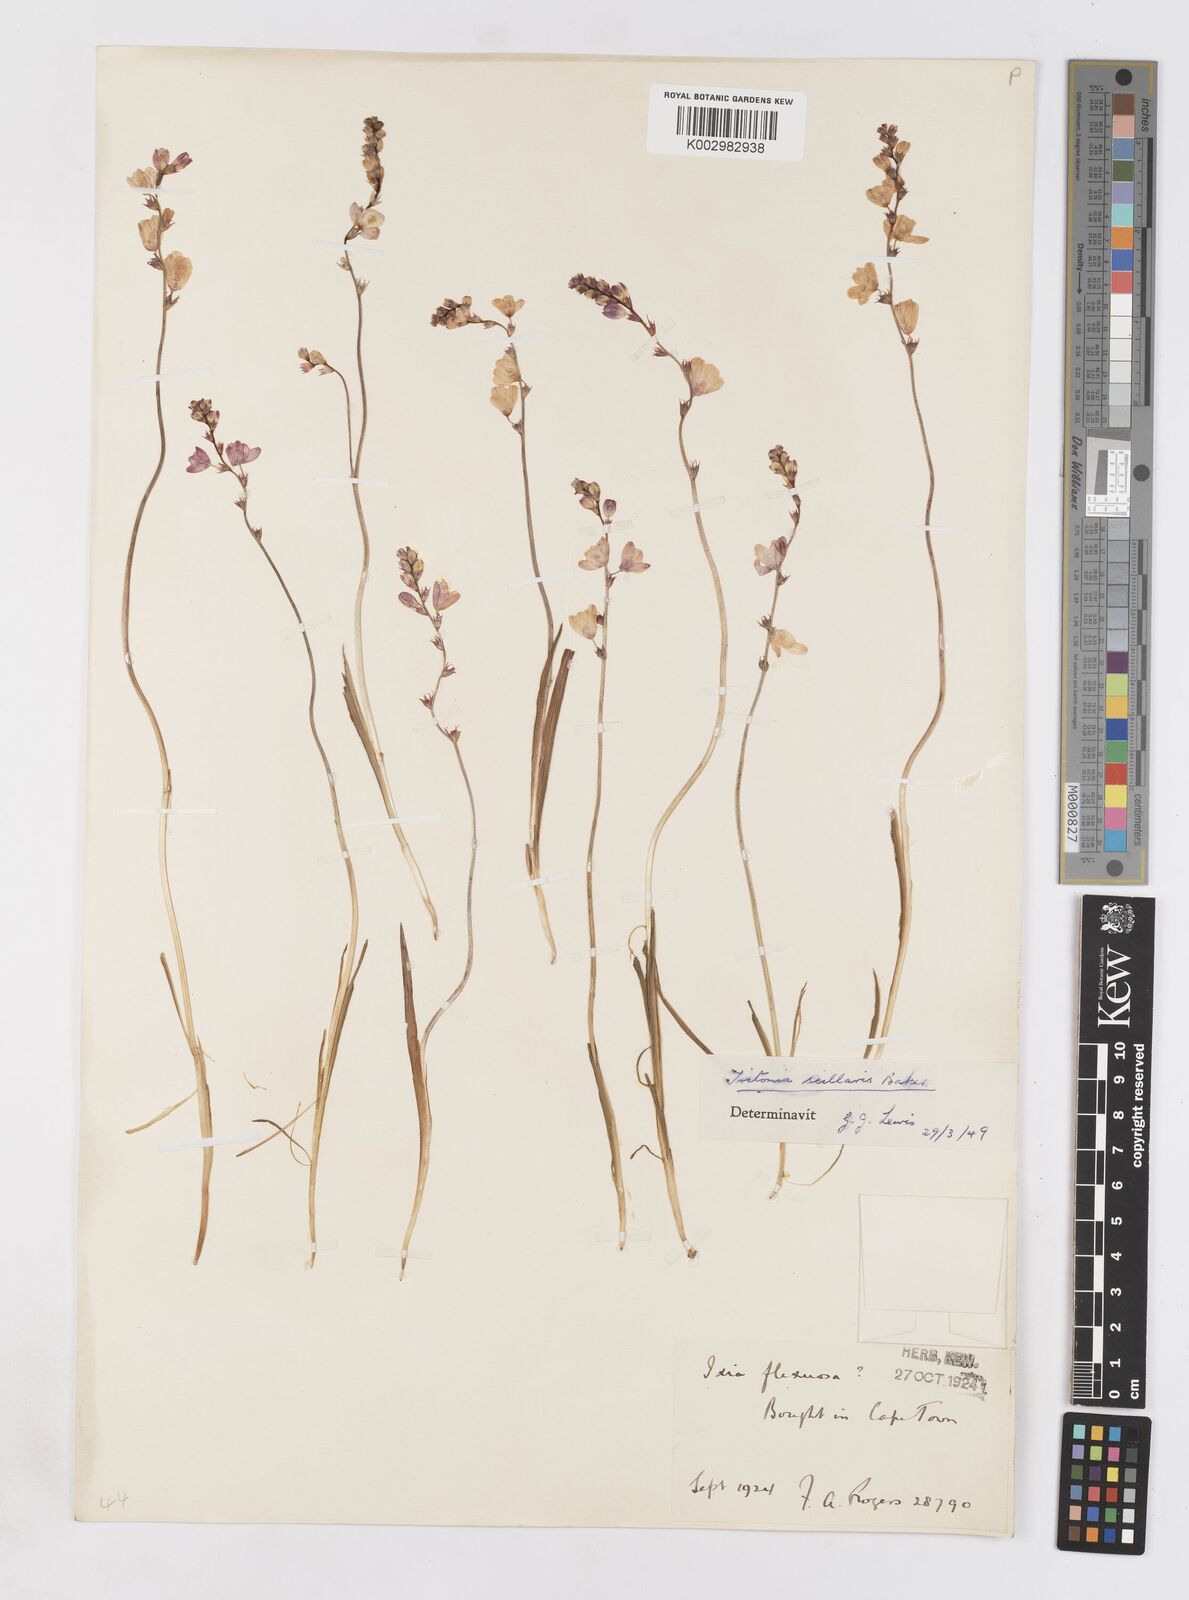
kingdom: Plantae
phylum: Tracheophyta
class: Liliopsida
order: Asparagales
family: Iridaceae
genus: Ixia
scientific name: Ixia scillaris
